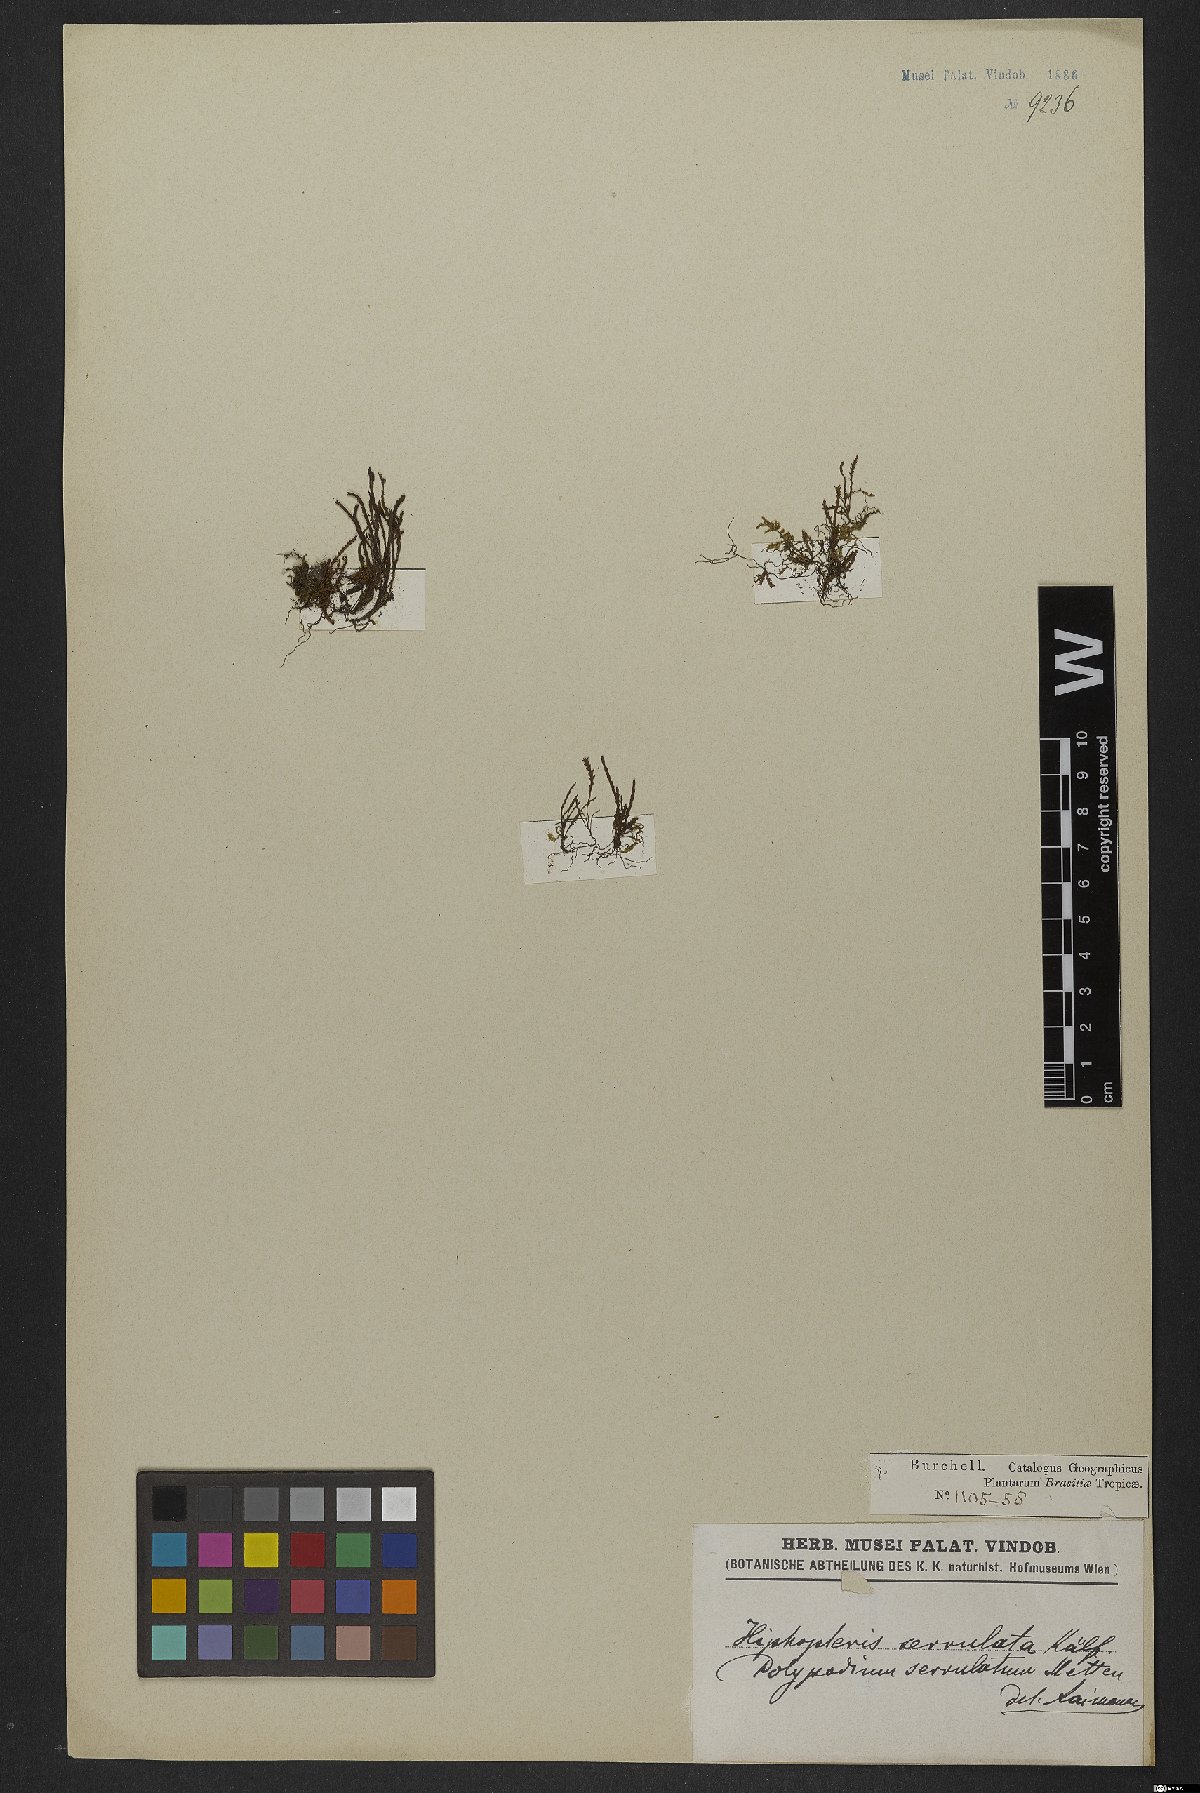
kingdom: Plantae
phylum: Tracheophyta
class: Polypodiopsida
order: Polypodiales
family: Polypodiaceae
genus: Cochlidium
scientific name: Cochlidium serrulatum
